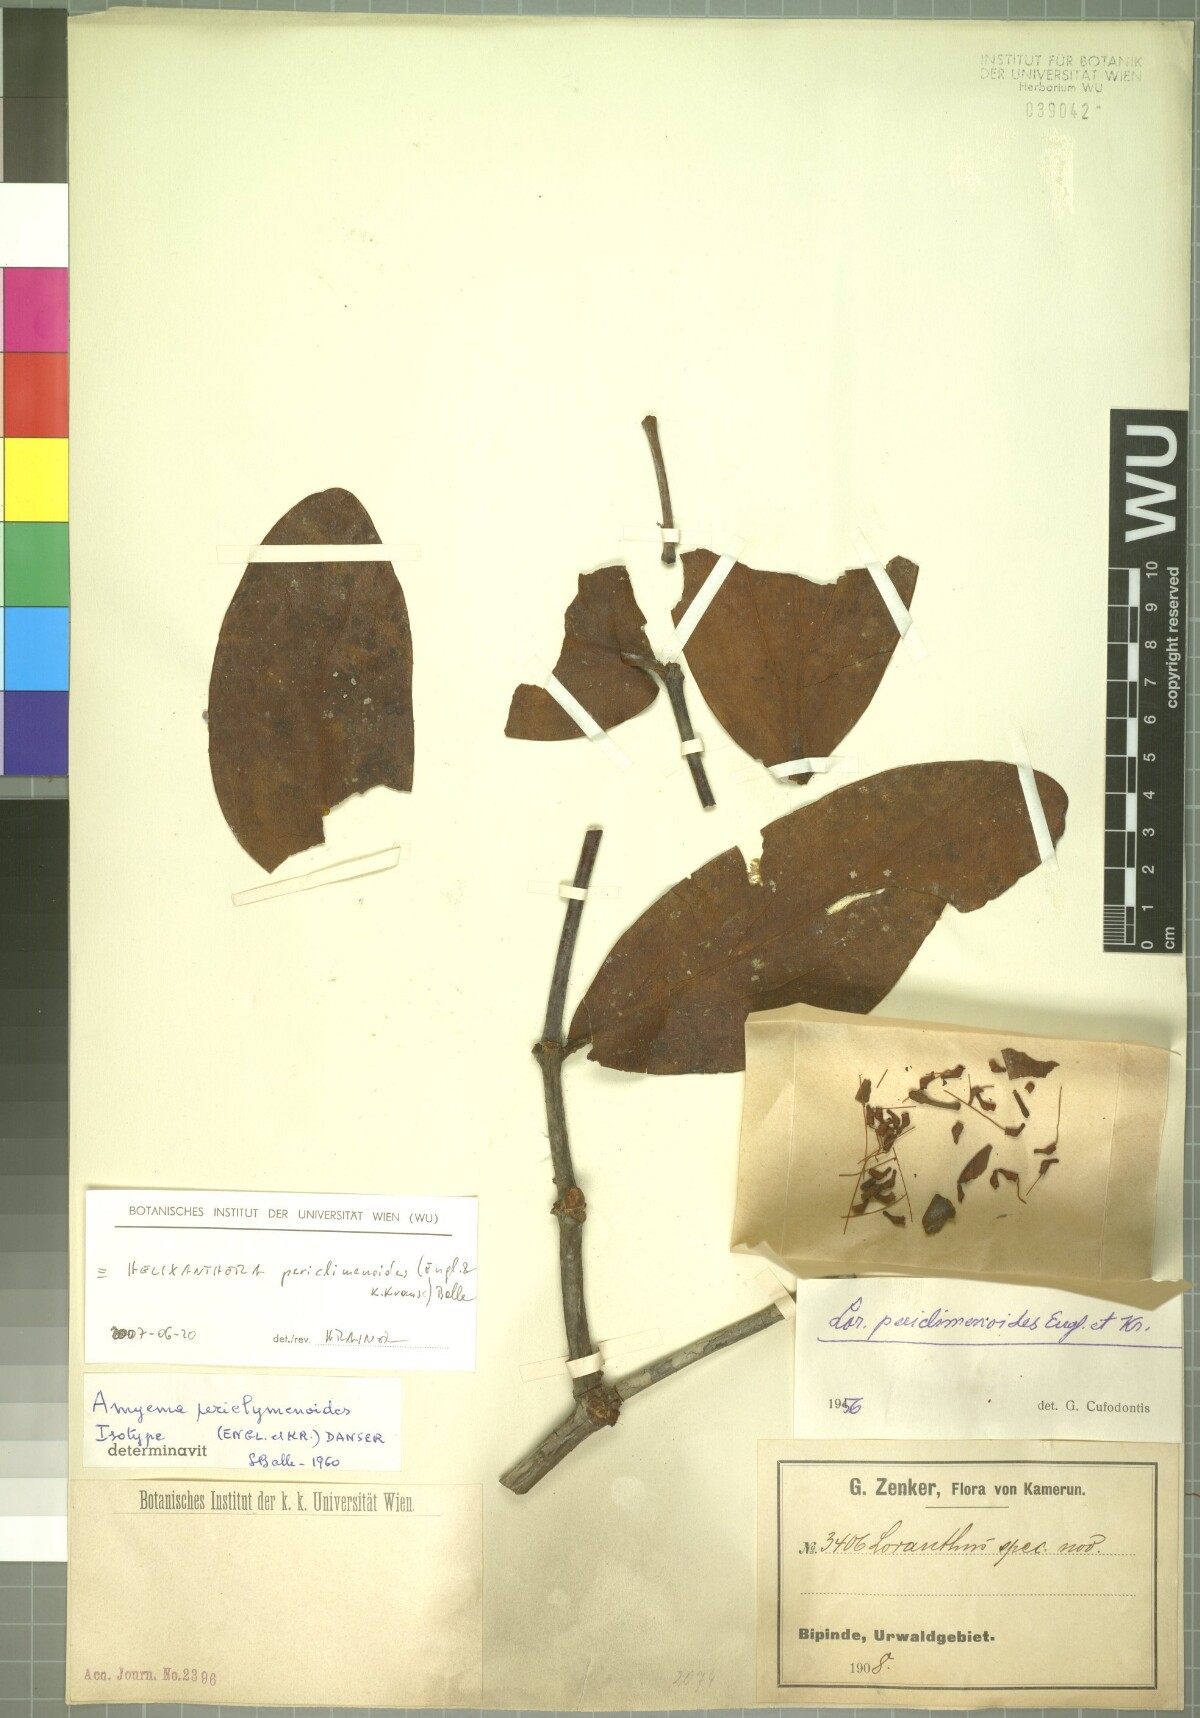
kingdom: Plantae
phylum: Tracheophyta
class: Magnoliopsida
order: Santalales
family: Loranthaceae
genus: Helixanthera
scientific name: Helixanthera periclymenoides
